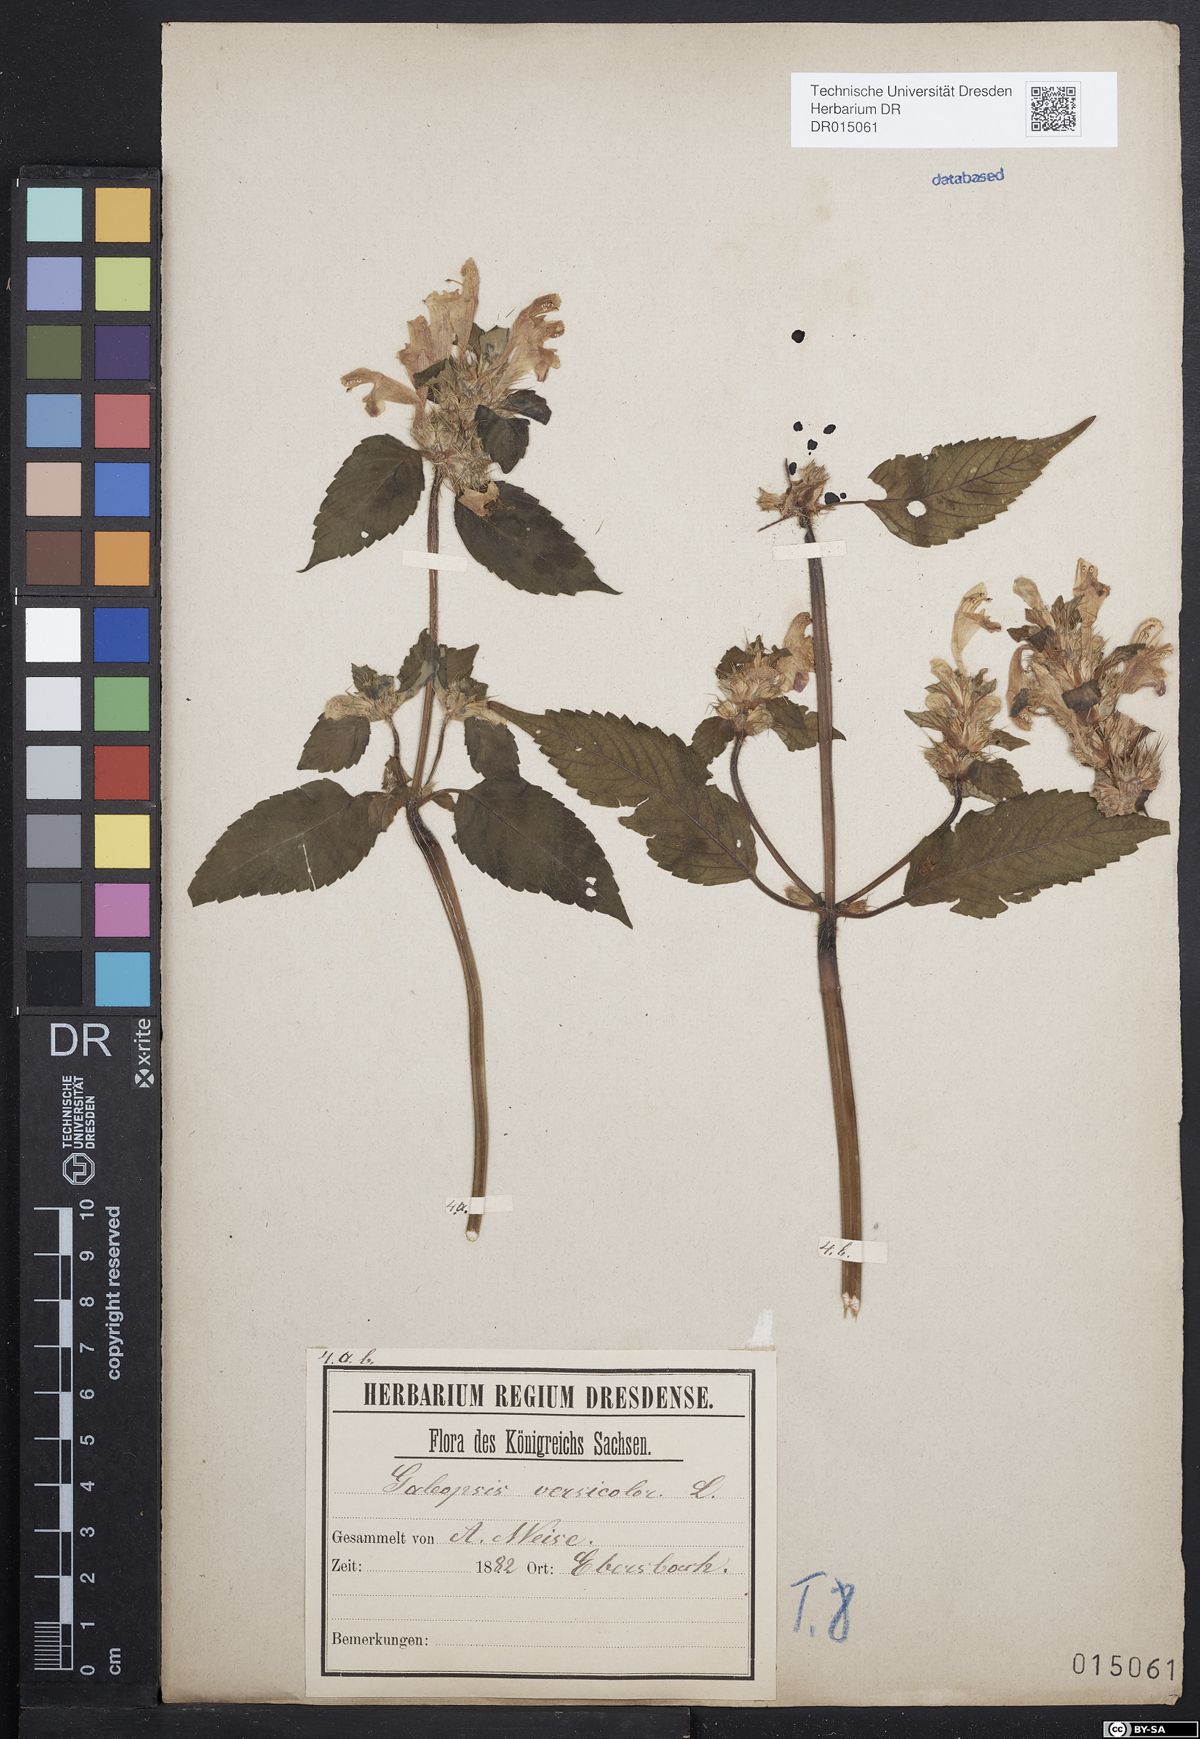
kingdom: Plantae
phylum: Tracheophyta
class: Magnoliopsida
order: Lamiales
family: Lamiaceae
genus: Galeopsis
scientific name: Galeopsis speciosa
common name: Large-flowered hemp-nettle
